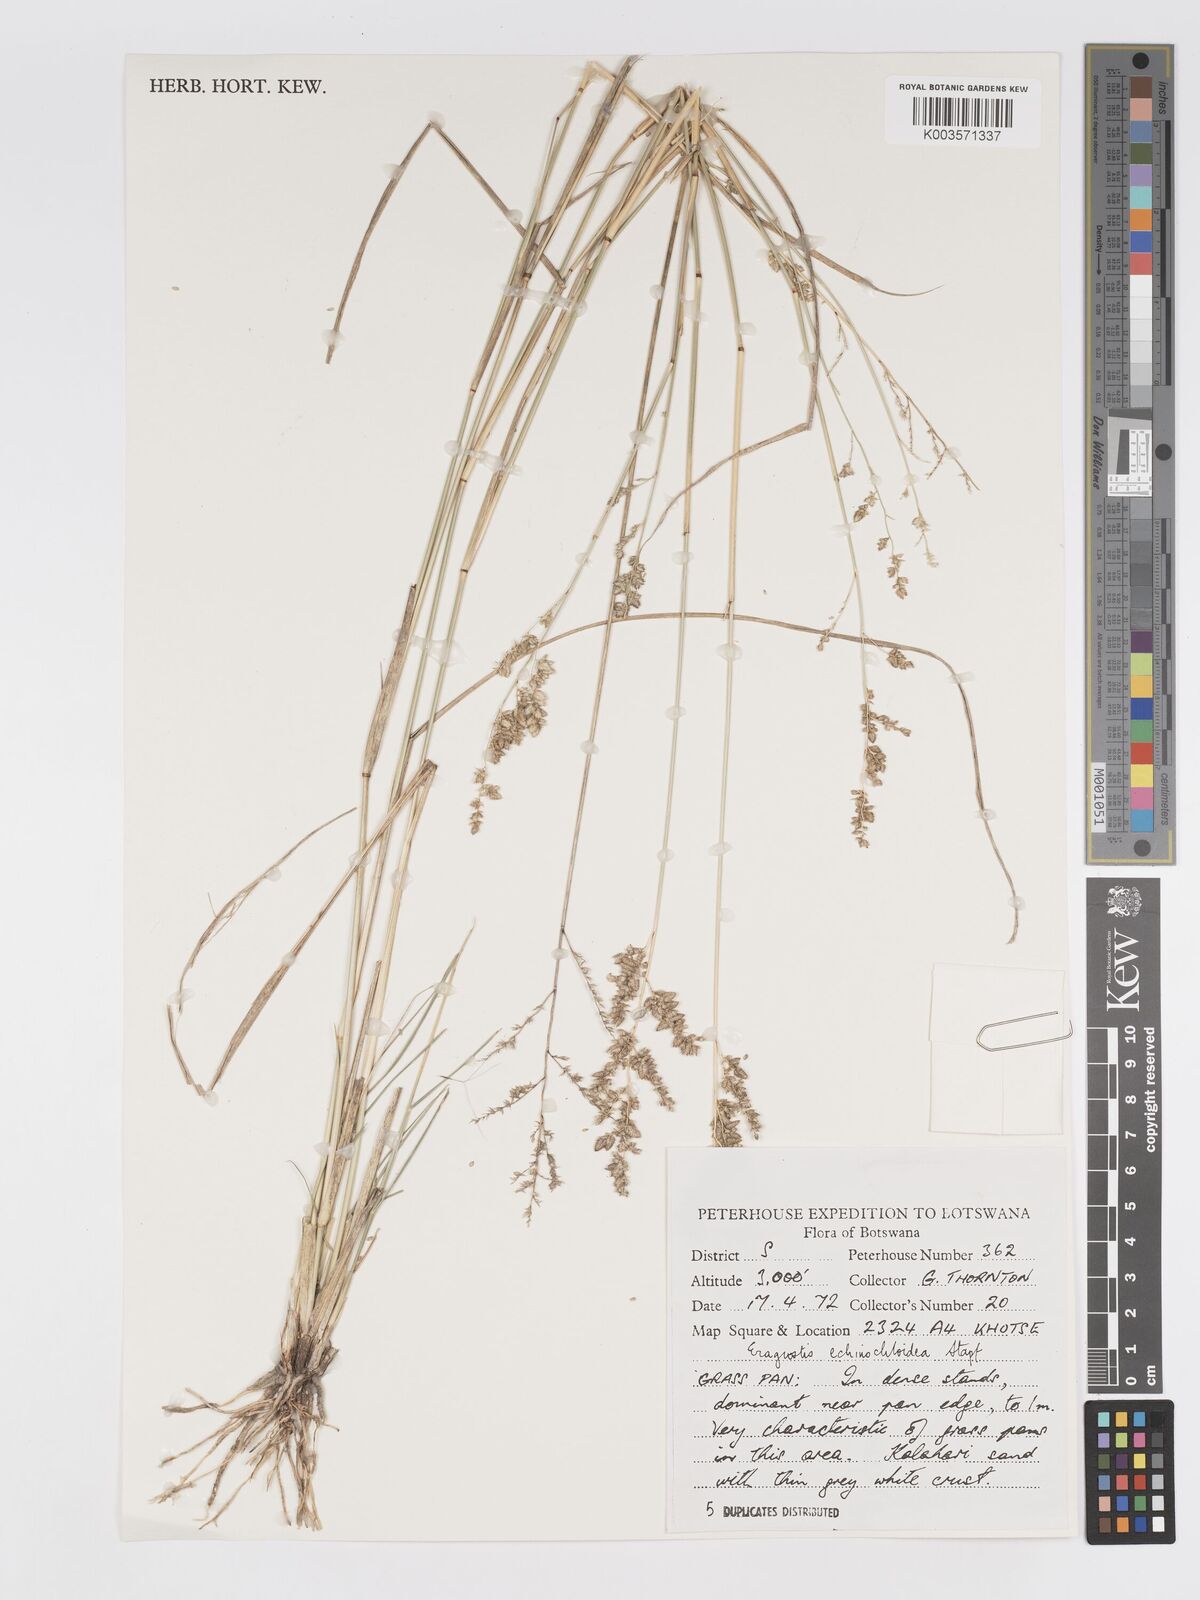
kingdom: Plantae
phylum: Tracheophyta
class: Liliopsida
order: Poales
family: Poaceae
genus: Eragrostis
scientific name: Eragrostis echinochloidea
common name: African lovegrass
